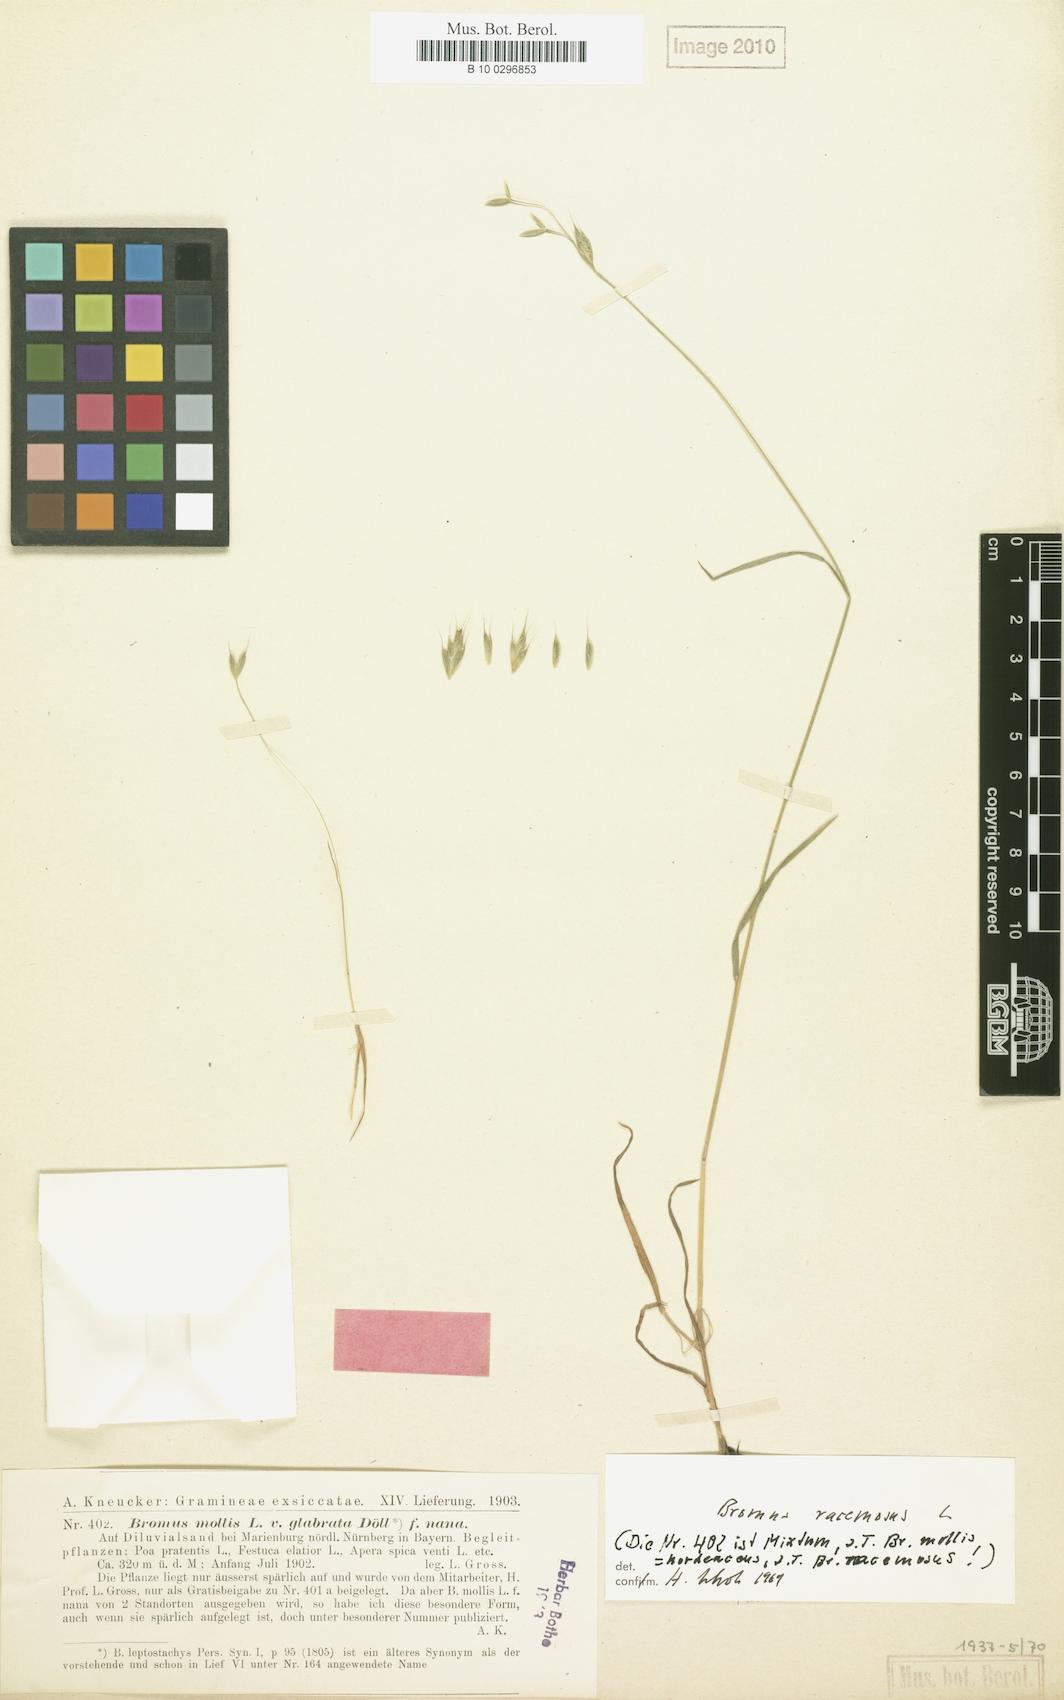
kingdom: Plantae
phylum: Tracheophyta
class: Liliopsida
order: Poales
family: Poaceae
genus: Bromus
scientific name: Bromus hordeaceus
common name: Soft brome
